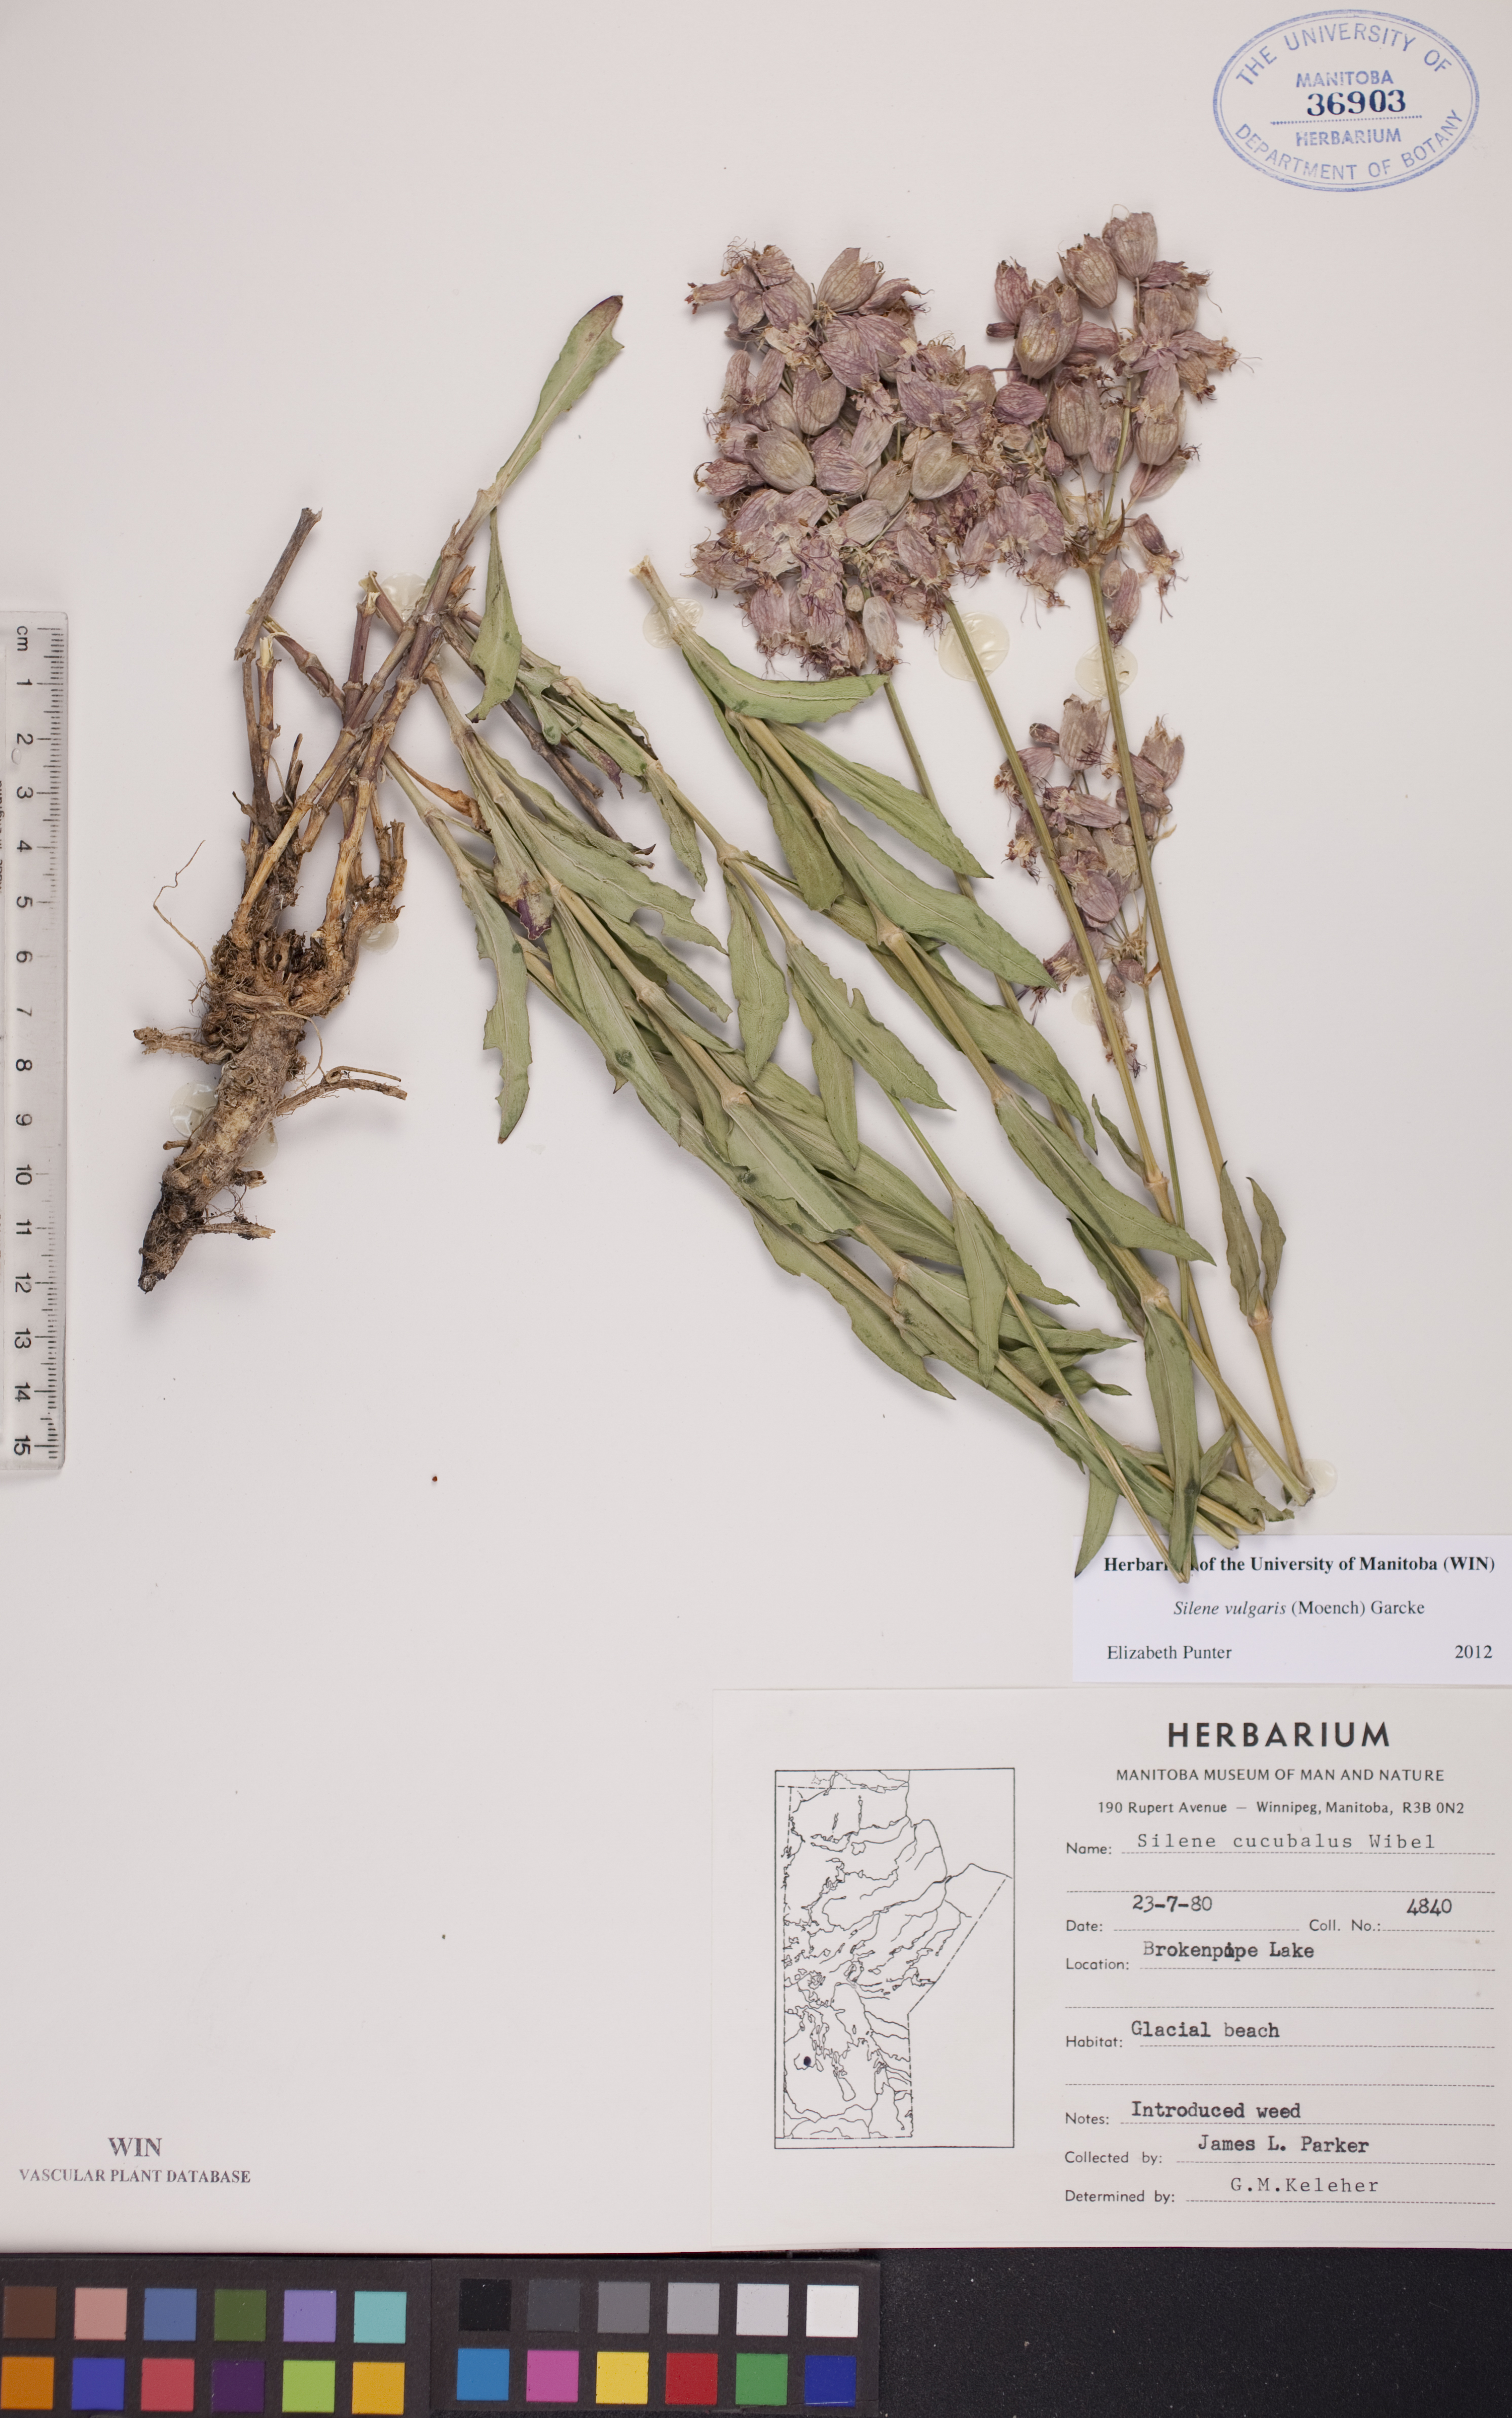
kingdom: Plantae
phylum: Tracheophyta
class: Magnoliopsida
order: Caryophyllales
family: Caryophyllaceae
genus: Silene
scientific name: Silene vulgaris
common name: Bladder campion
